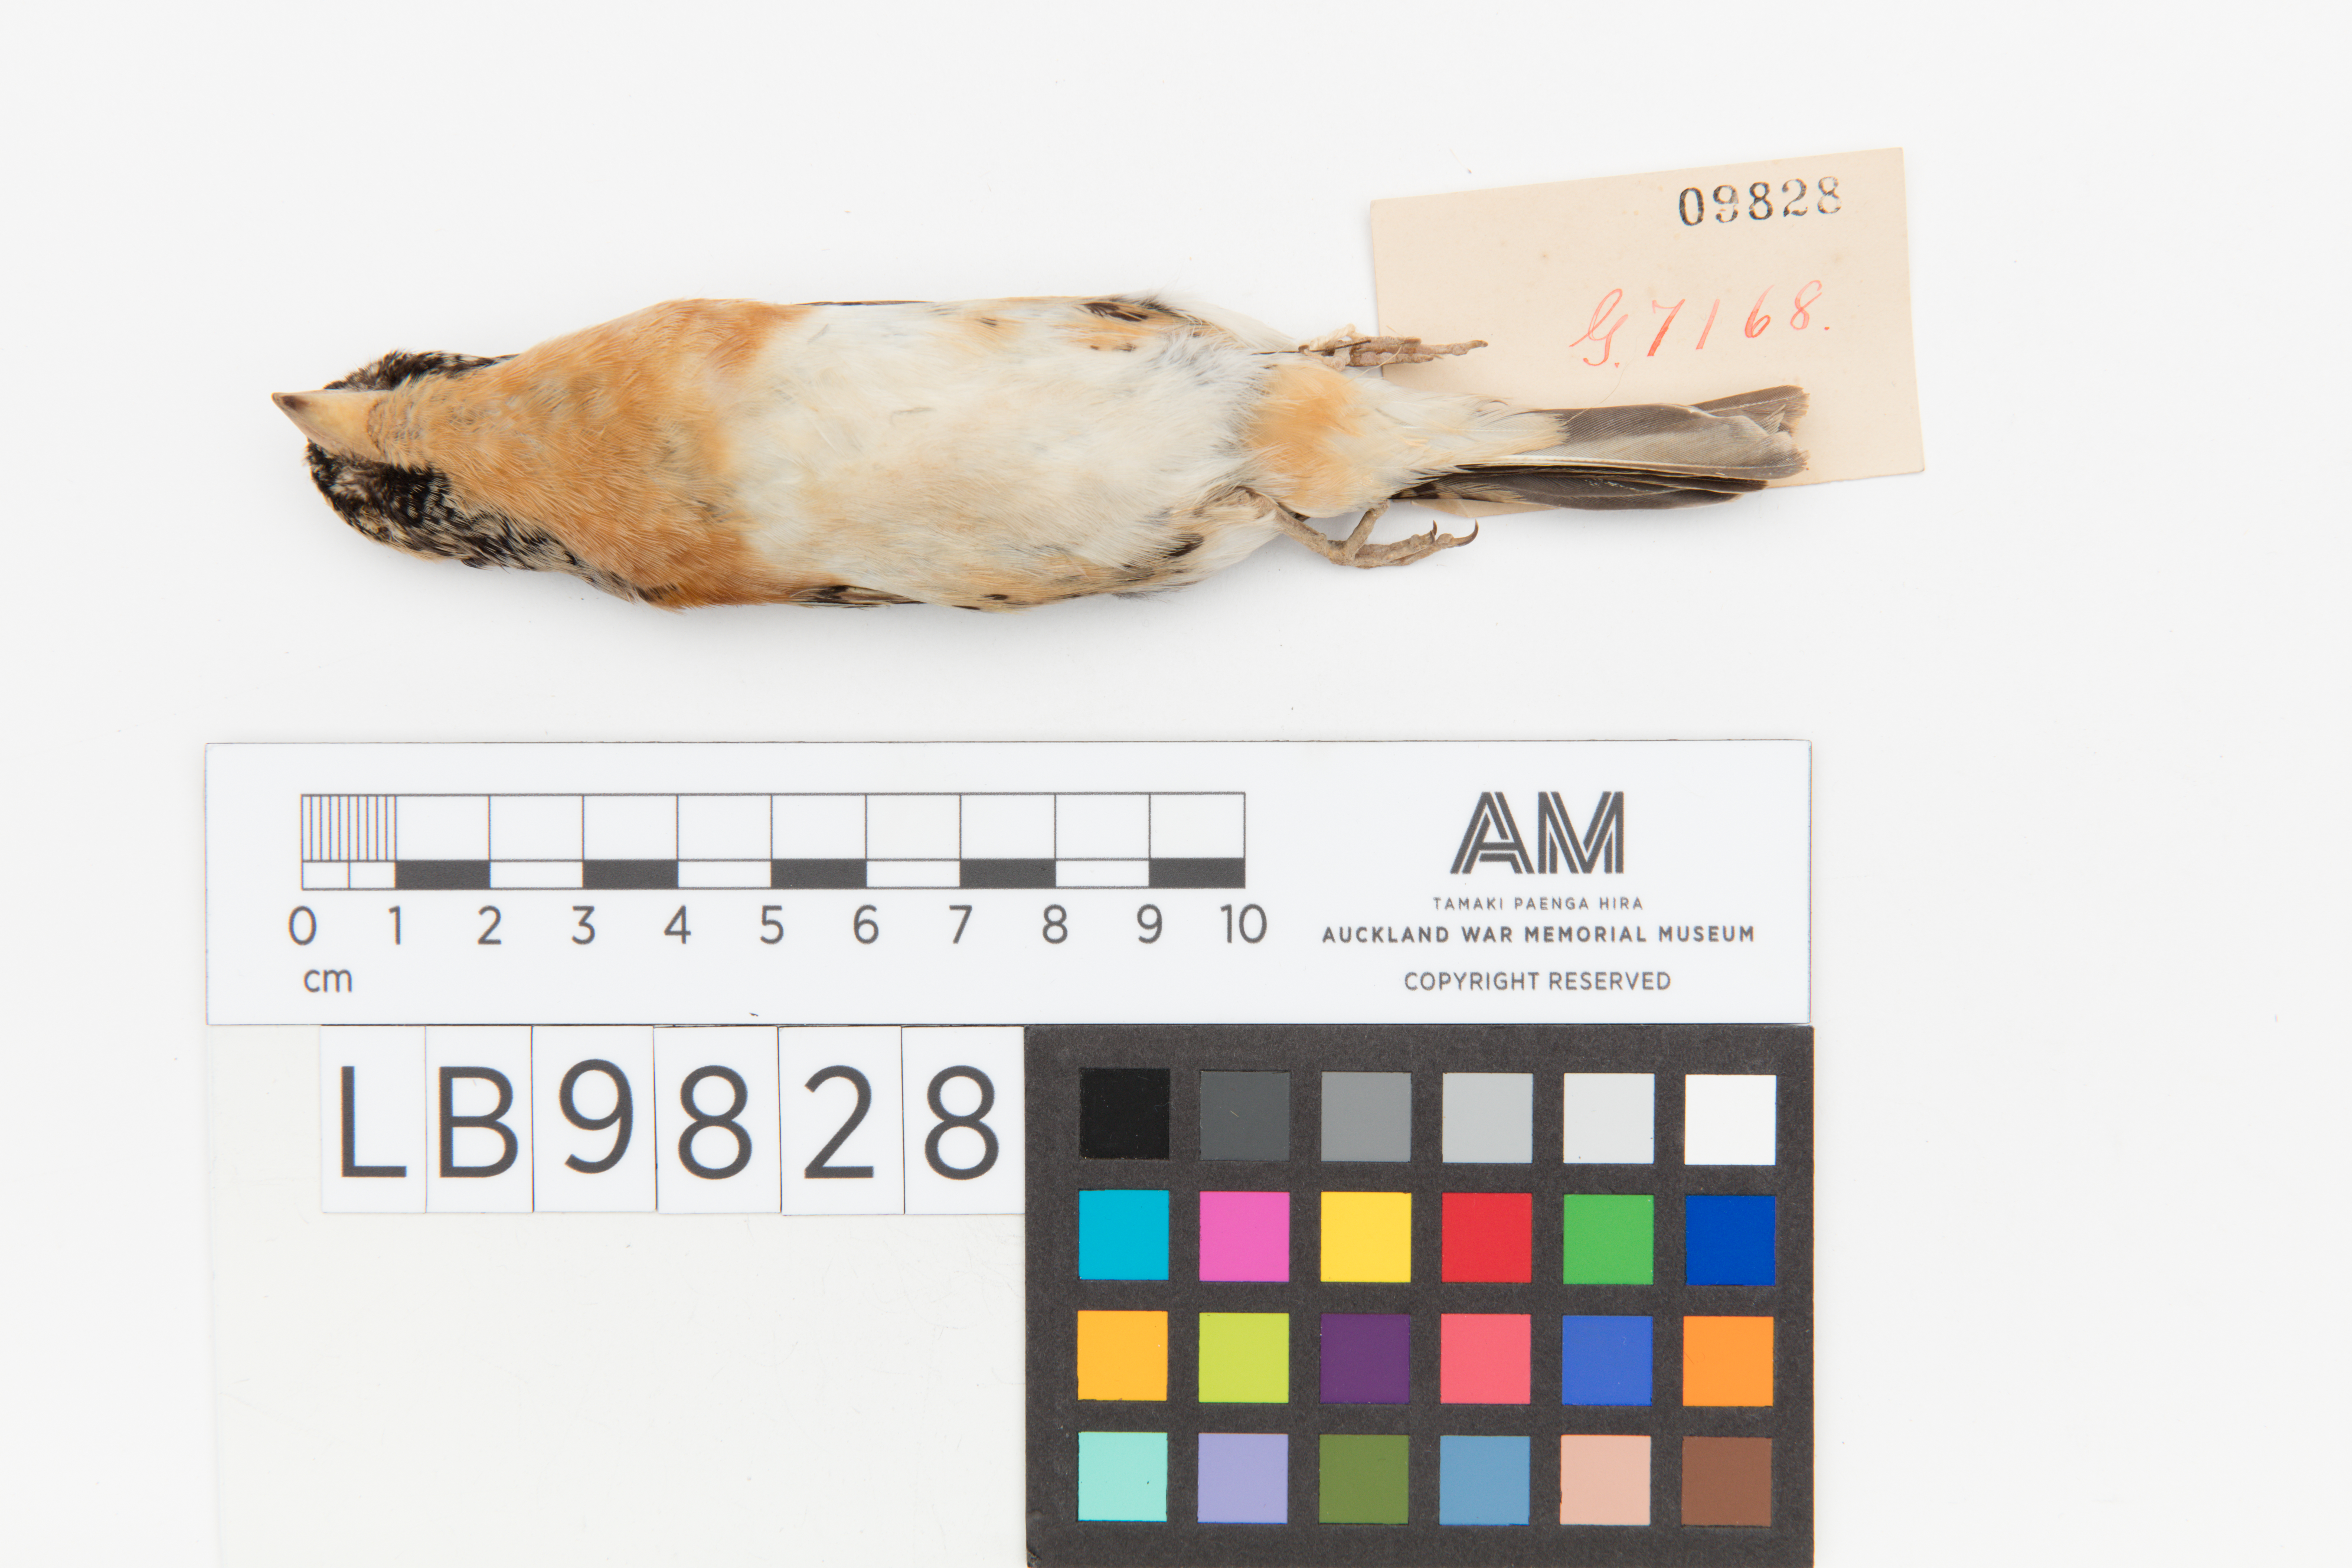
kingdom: Animalia
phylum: Chordata
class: Aves
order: Passeriformes
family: Fringillidae
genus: Fringilla
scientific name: Fringilla montifringilla
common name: Brambling
